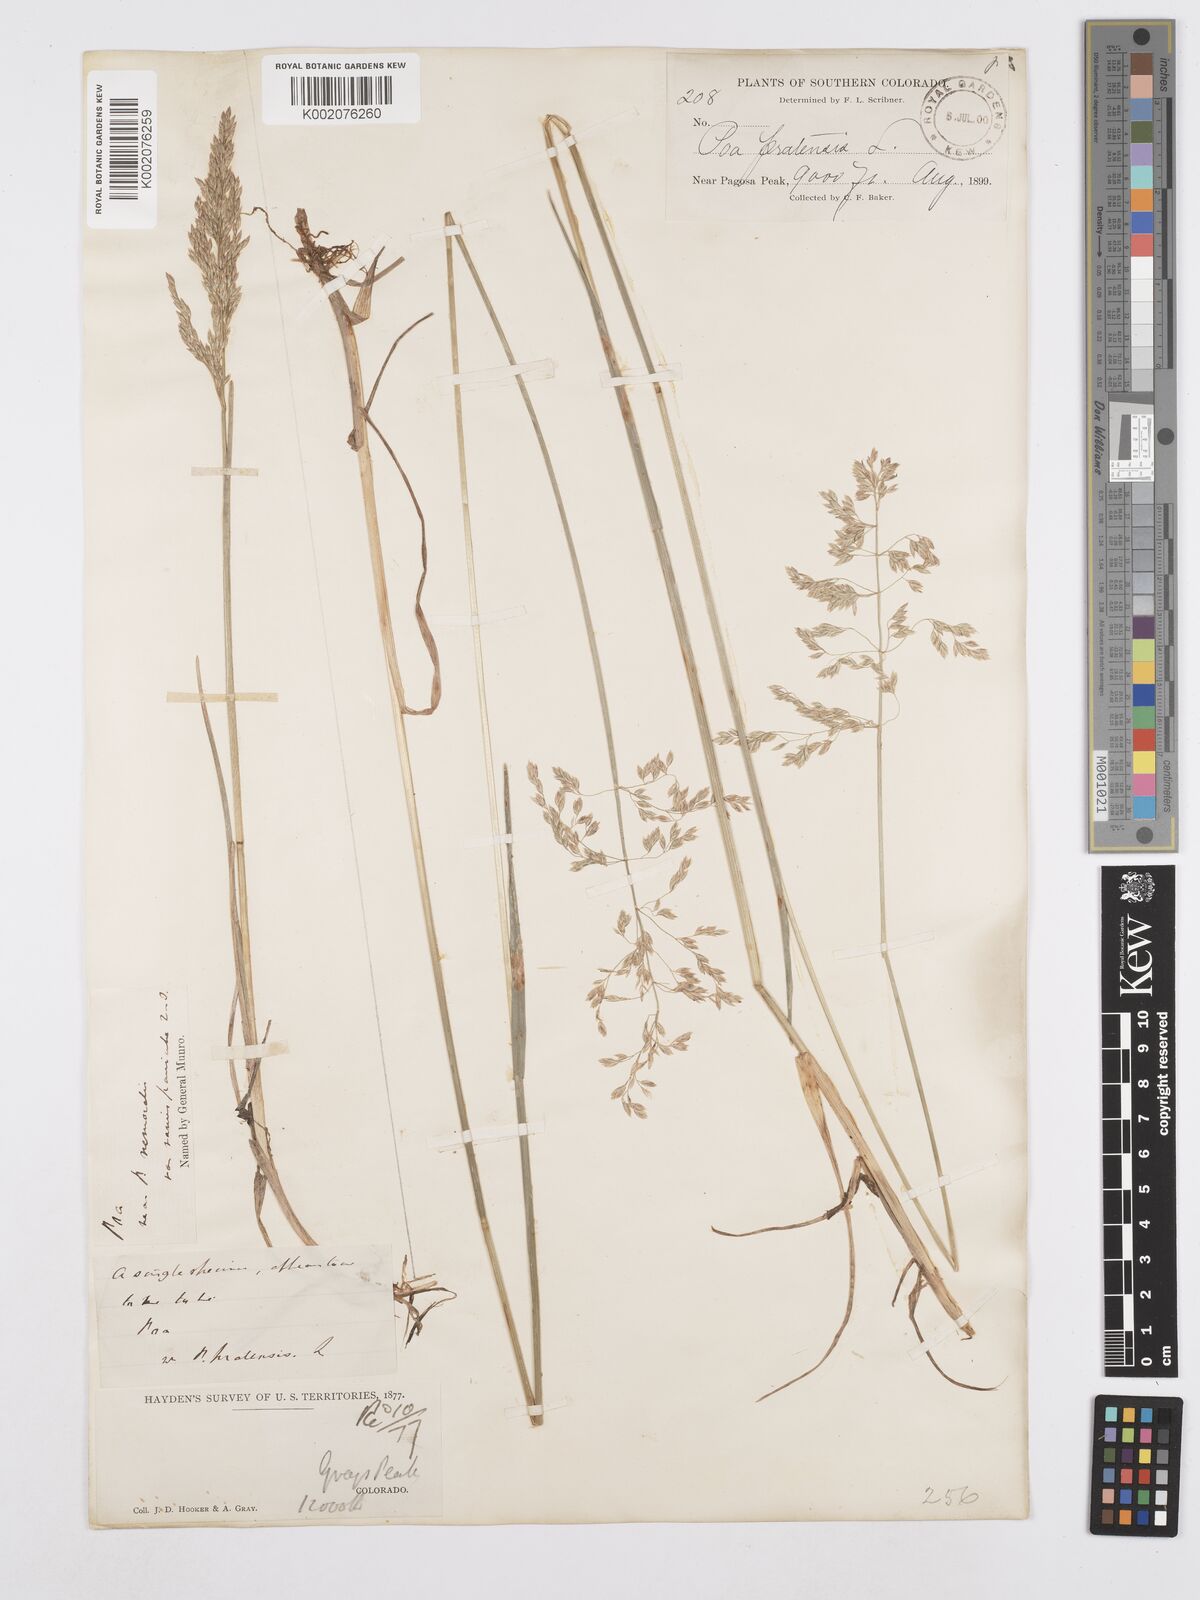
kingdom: Plantae
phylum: Tracheophyta
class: Liliopsida
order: Poales
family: Poaceae
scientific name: Poaceae
